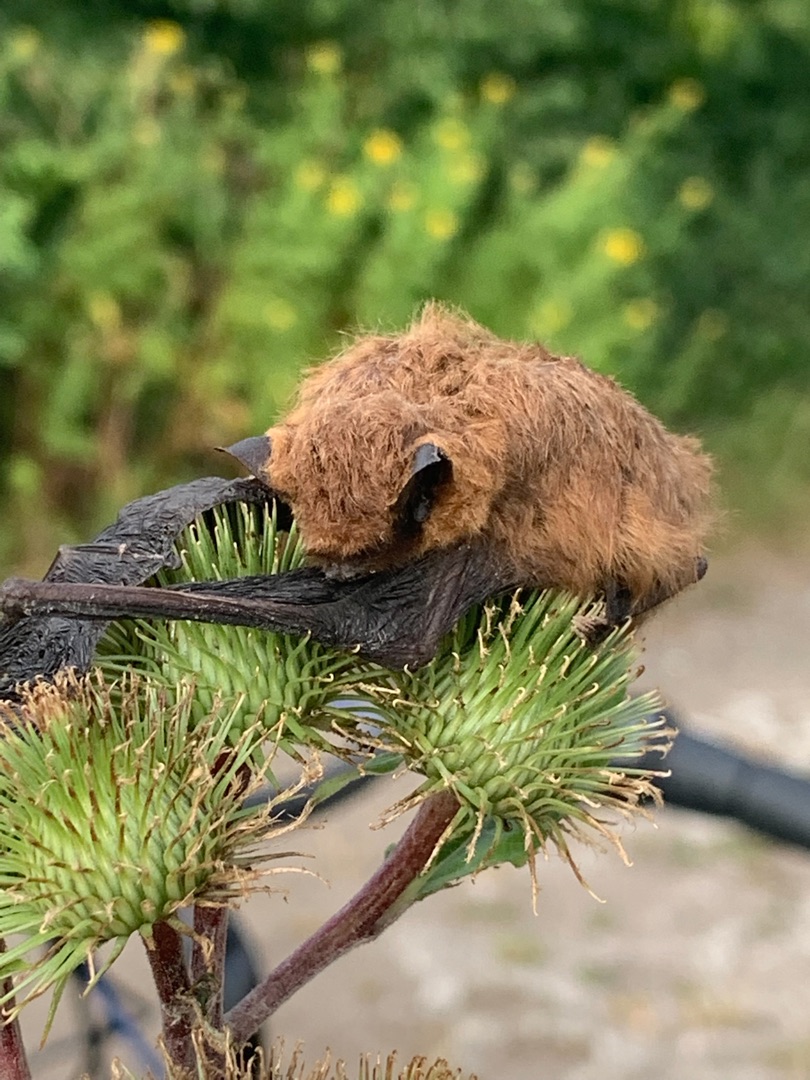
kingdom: Animalia
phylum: Chordata
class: Mammalia
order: Chiroptera
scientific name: Chiroptera
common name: Flagermus
